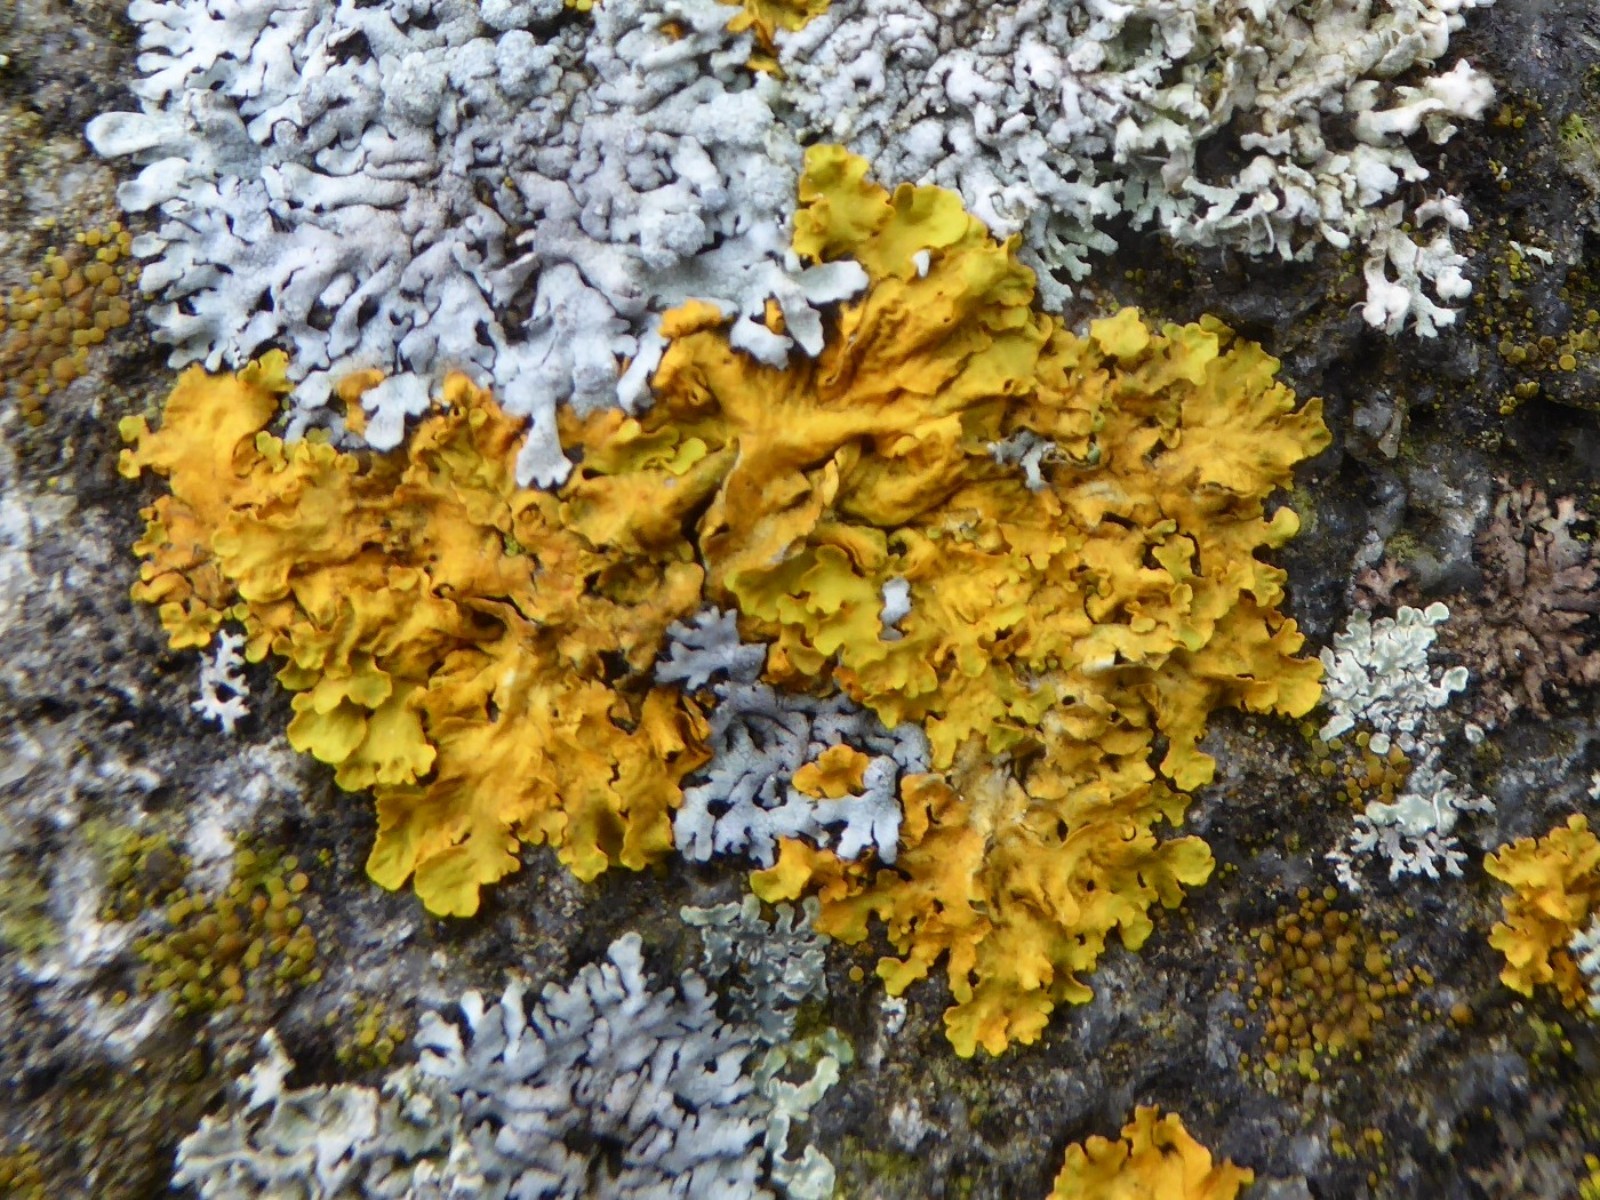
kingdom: Fungi
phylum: Ascomycota
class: Lecanoromycetes
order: Teloschistales
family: Teloschistaceae
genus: Xanthoria
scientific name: Xanthoria parietina
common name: almindelig væggelav
